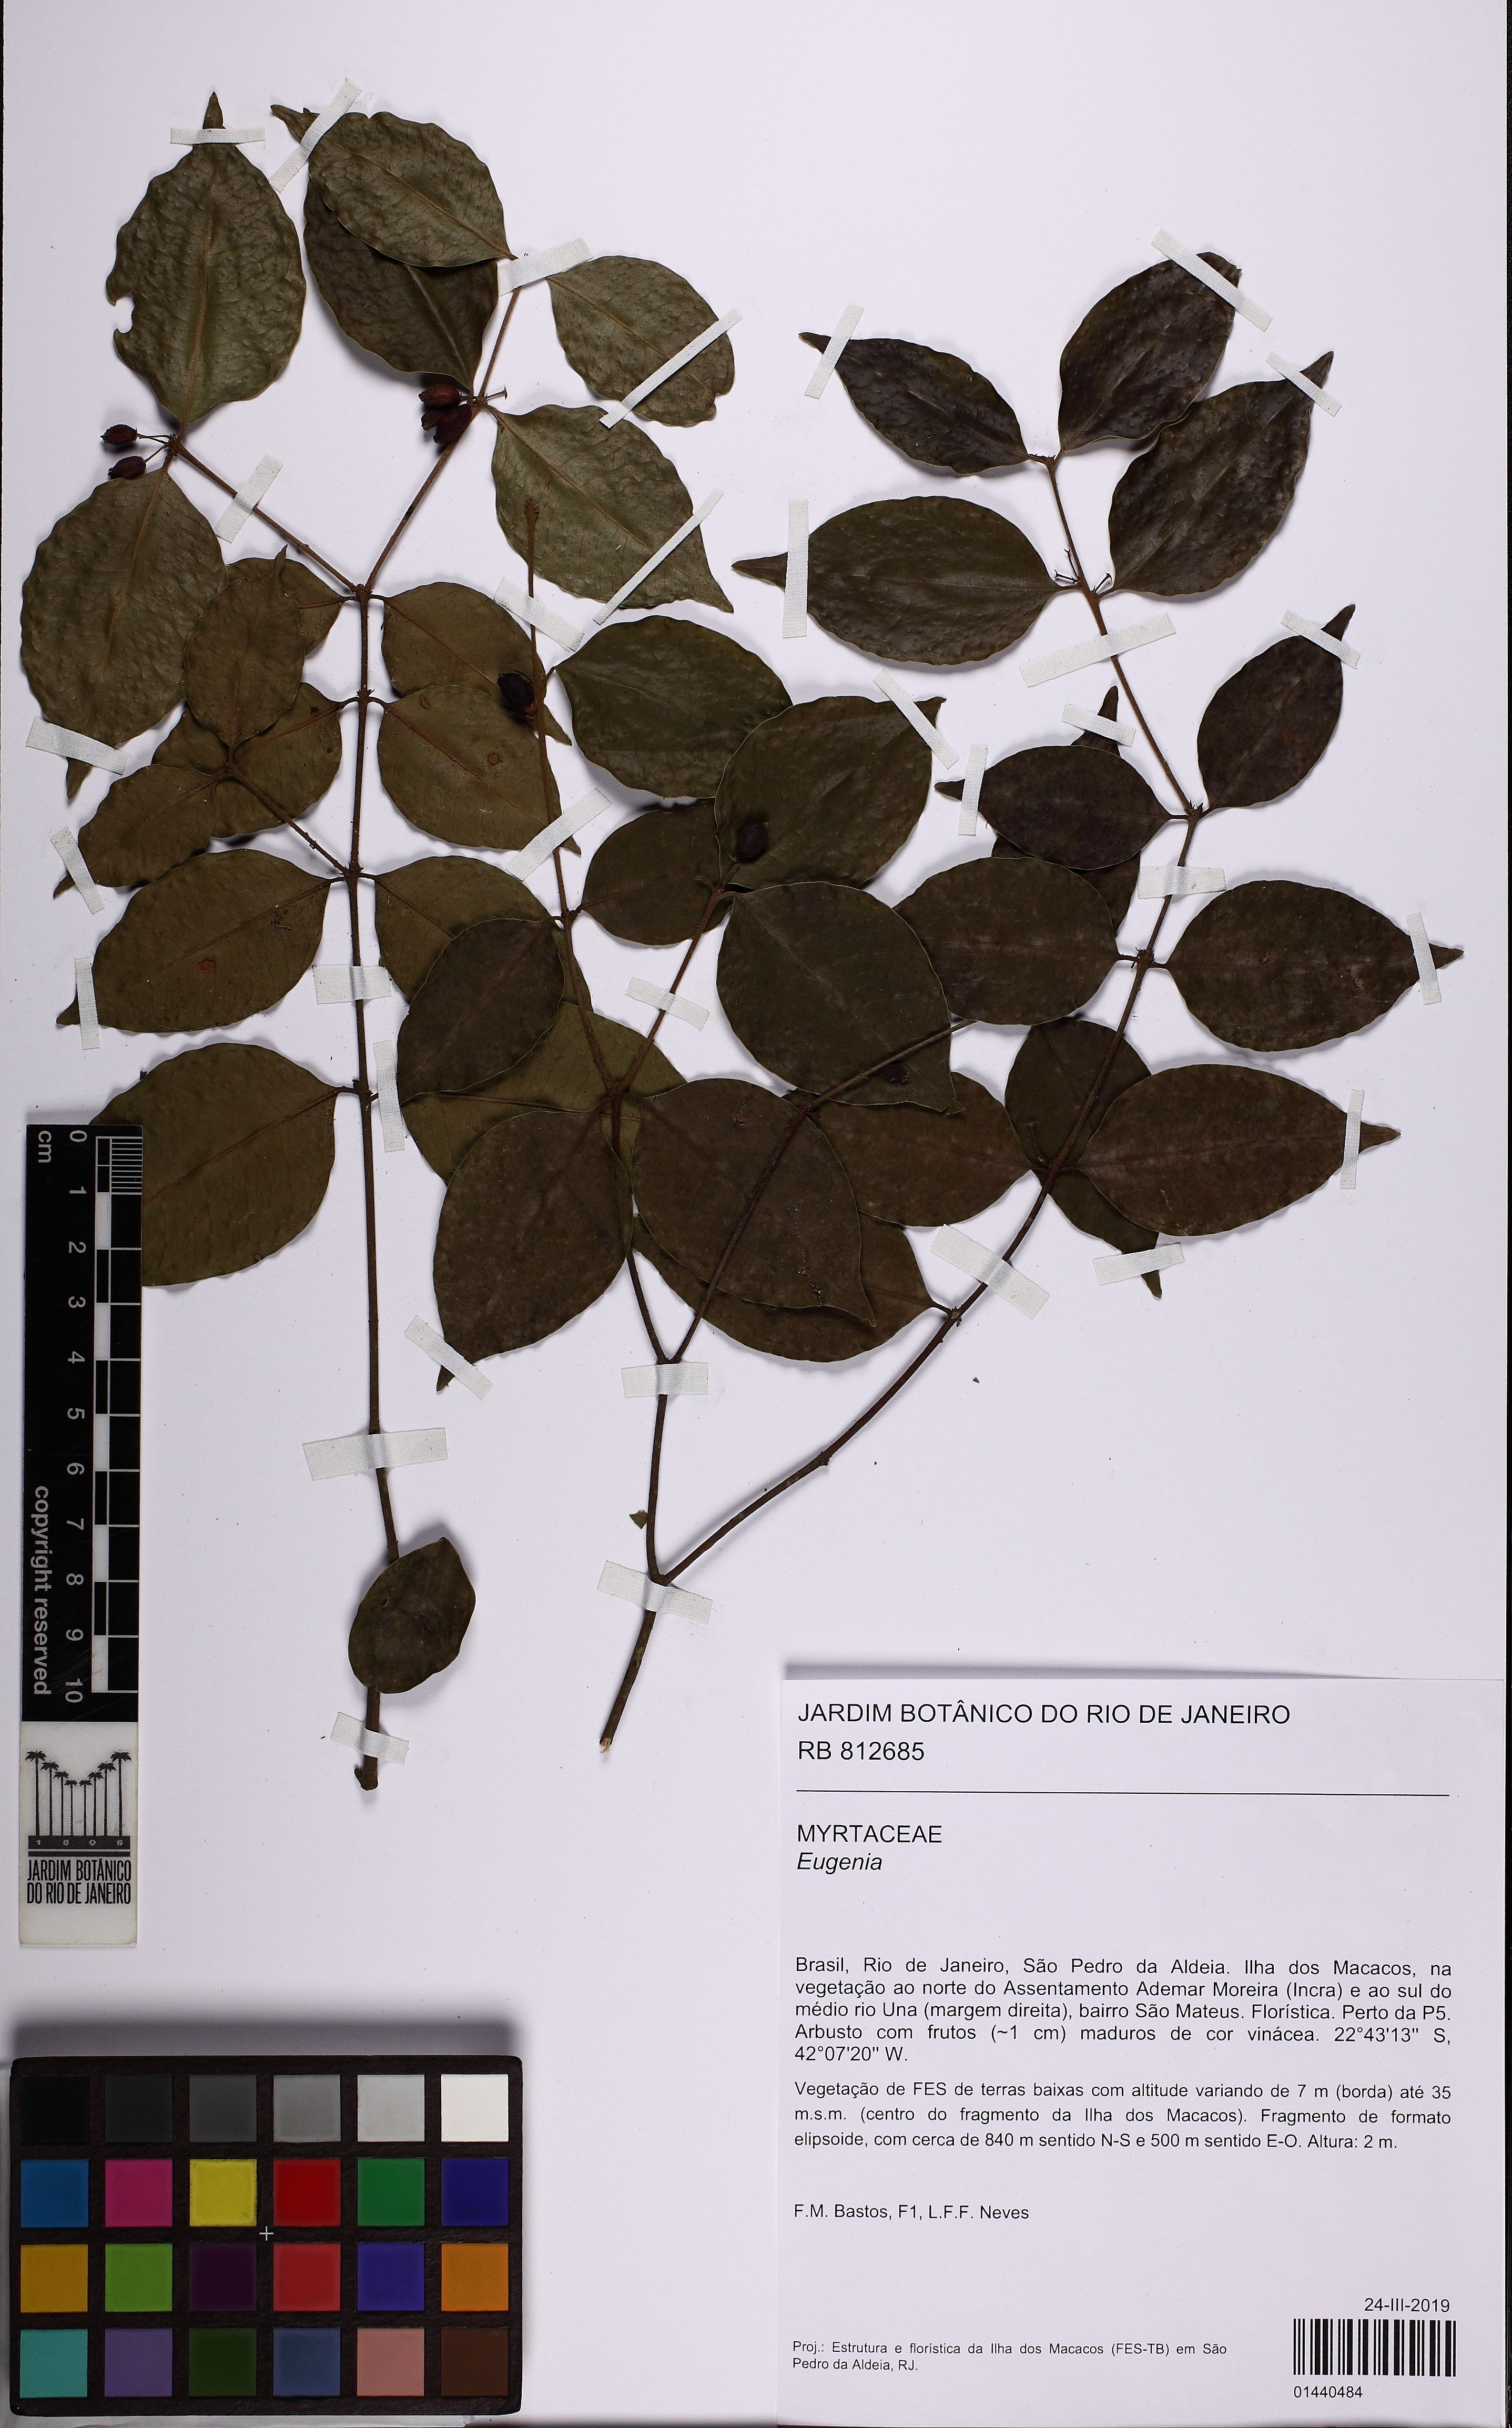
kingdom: Plantae
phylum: Tracheophyta
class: Magnoliopsida
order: Myrtales
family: Myrtaceae
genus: Eugenia
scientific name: Eugenia
